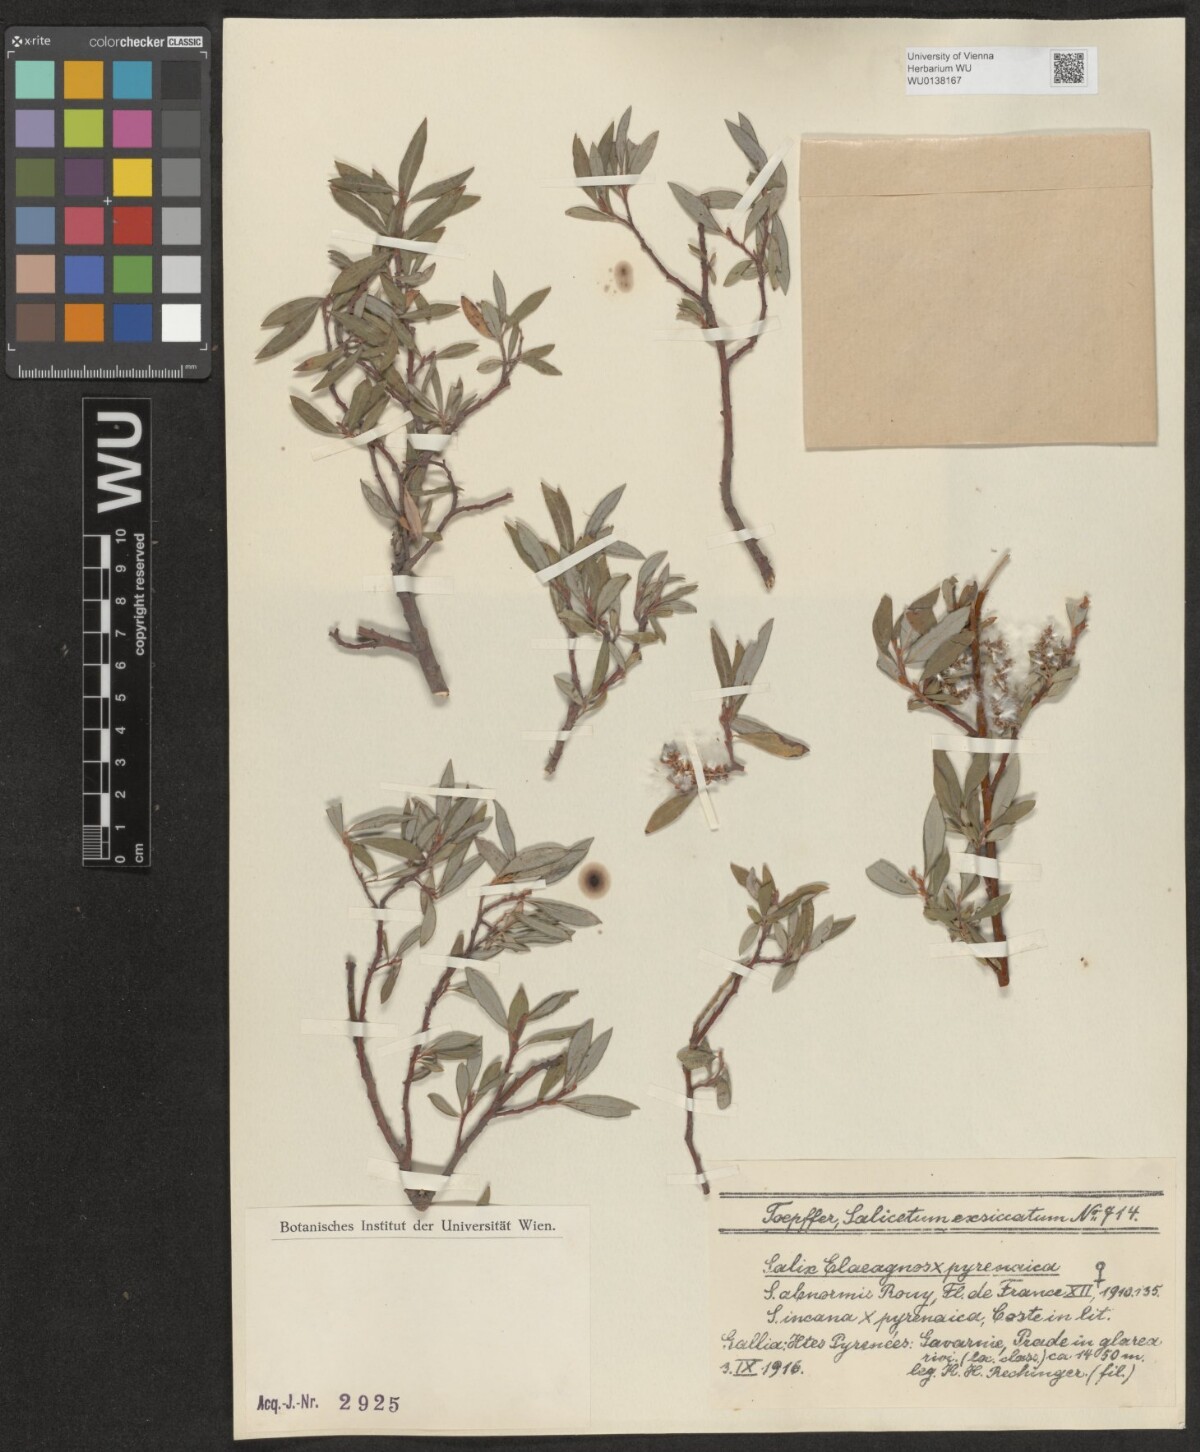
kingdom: Plantae
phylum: Tracheophyta
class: Magnoliopsida
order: Malpighiales
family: Salicaceae
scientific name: Salicaceae
